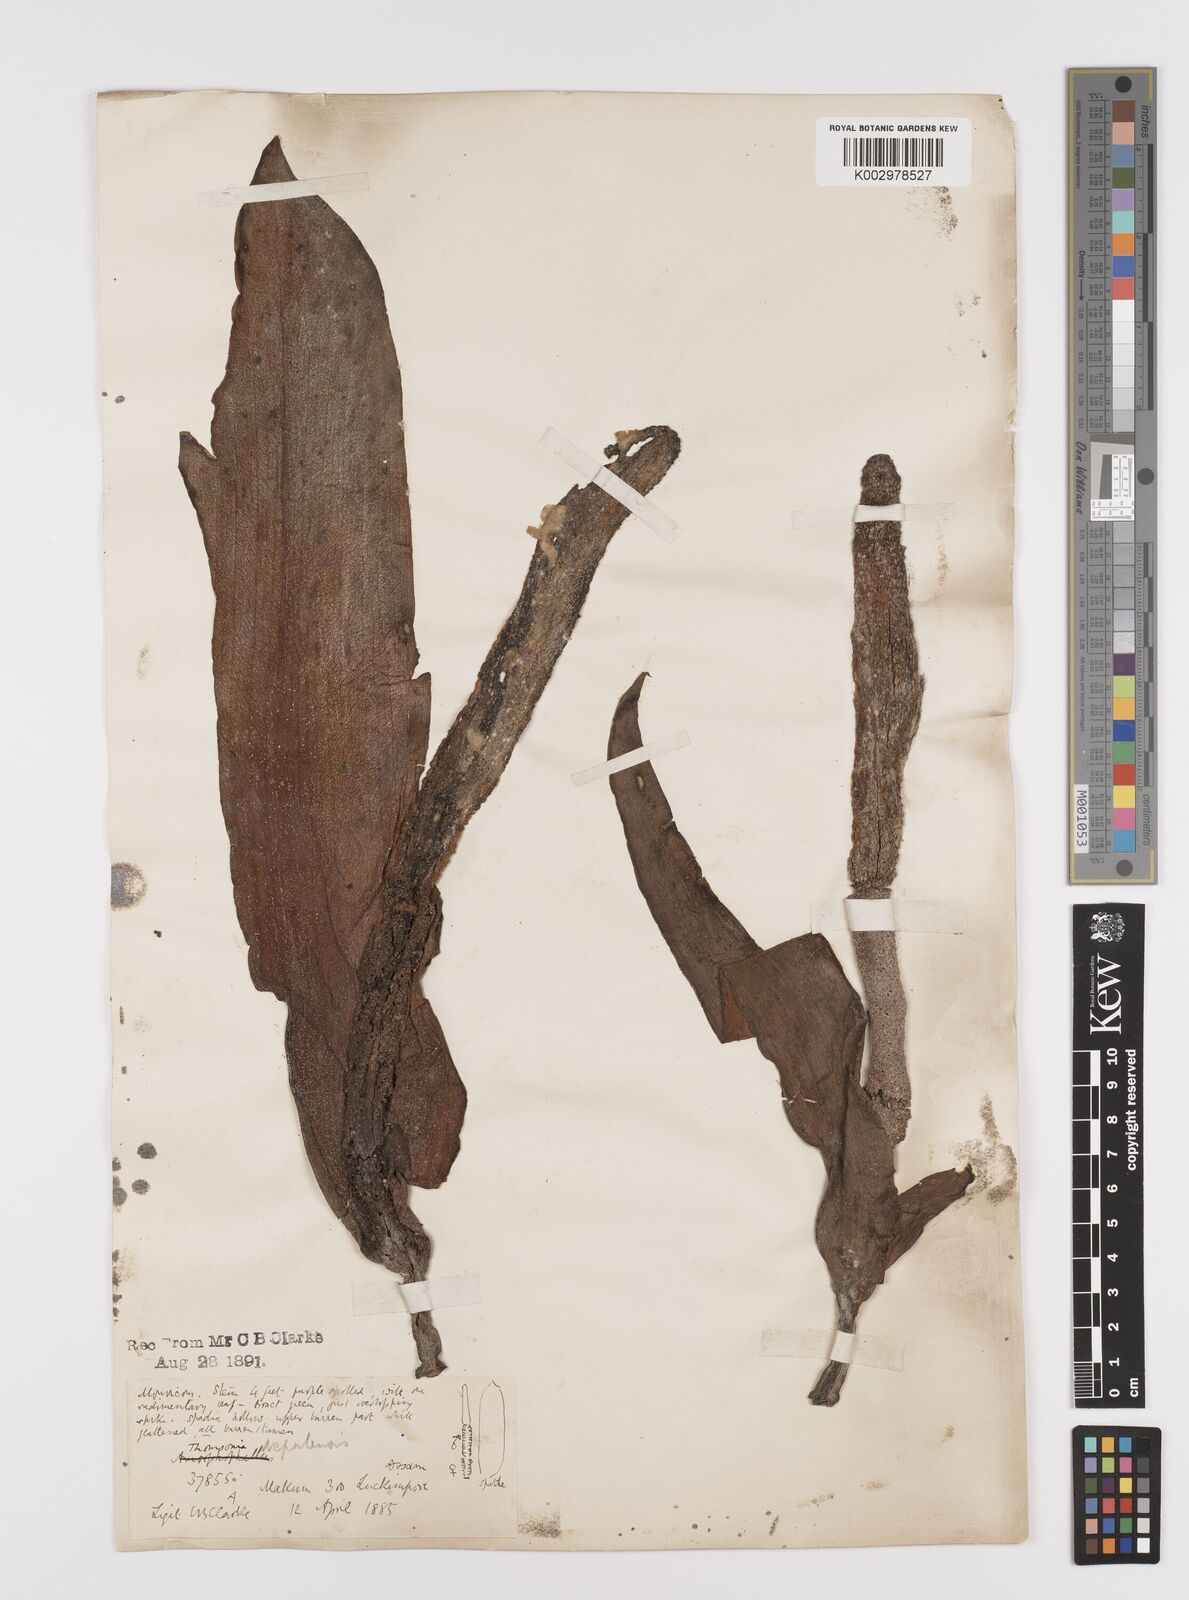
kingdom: Plantae
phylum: Tracheophyta
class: Liliopsida
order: Alismatales
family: Araceae
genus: Amorphophallus
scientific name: Amorphophallus napalensis
